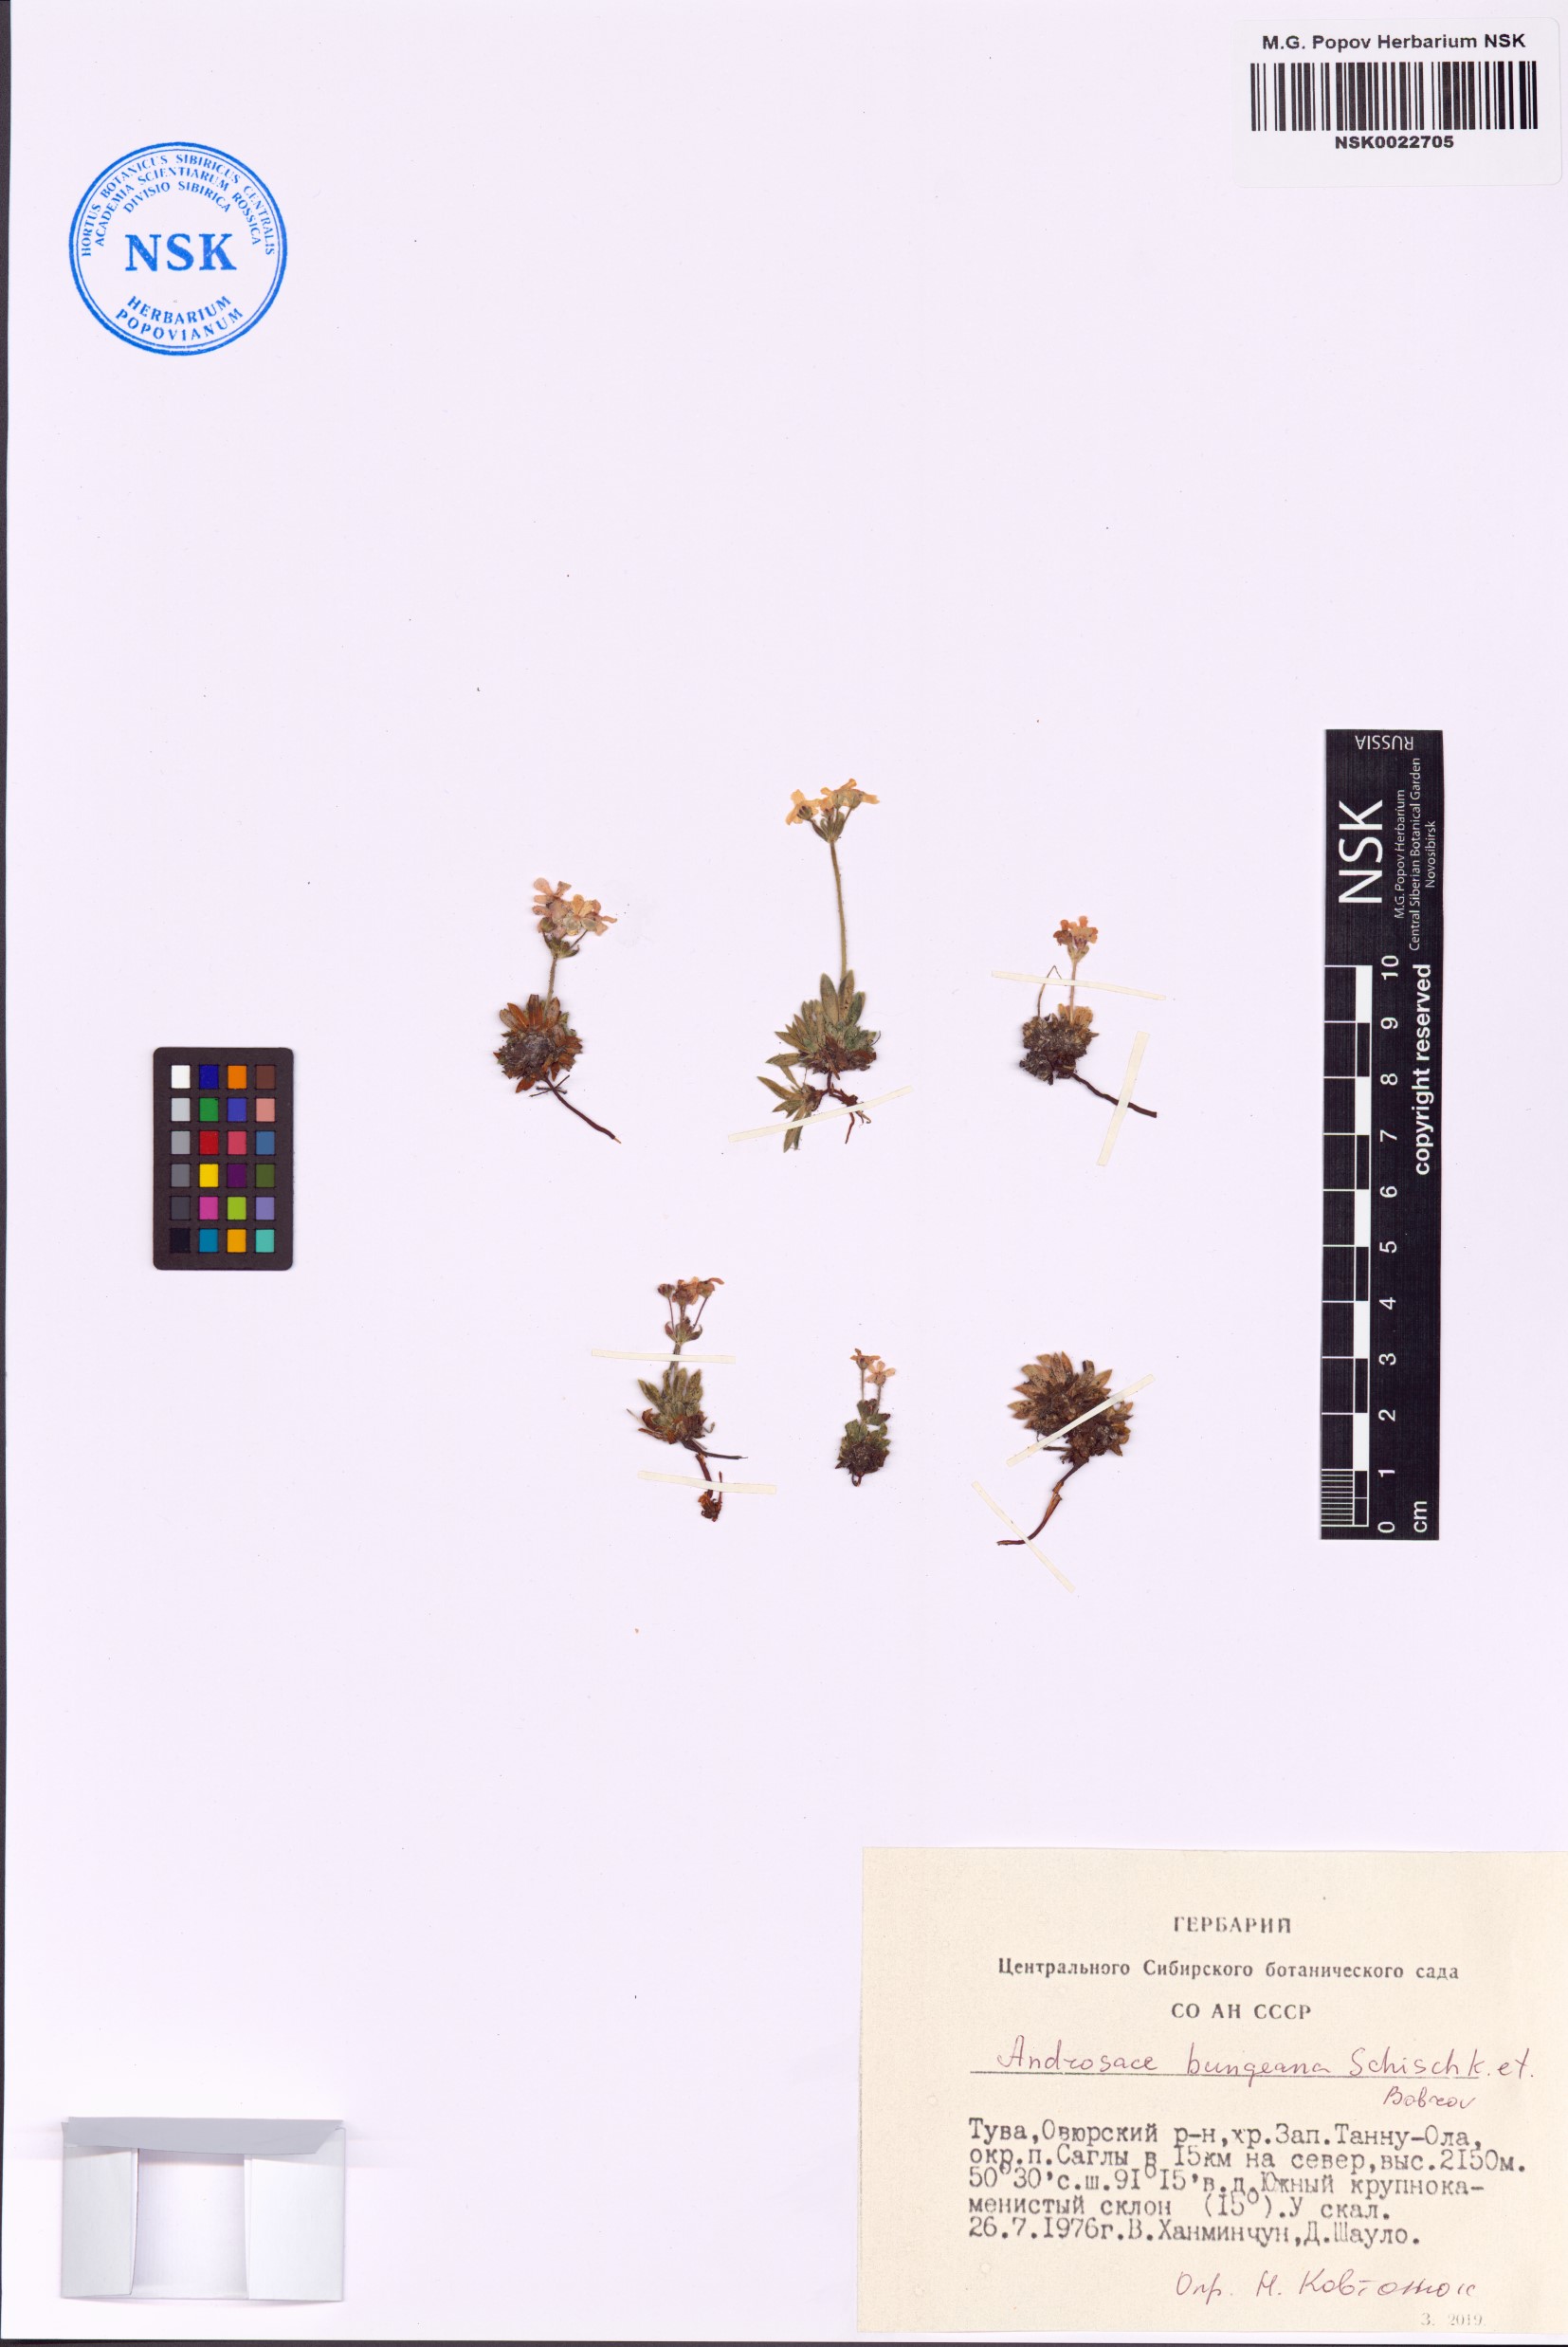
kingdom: Plantae
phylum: Tracheophyta
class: Magnoliopsida
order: Ericales
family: Primulaceae
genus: Androsace
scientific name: Androsace bungeana
